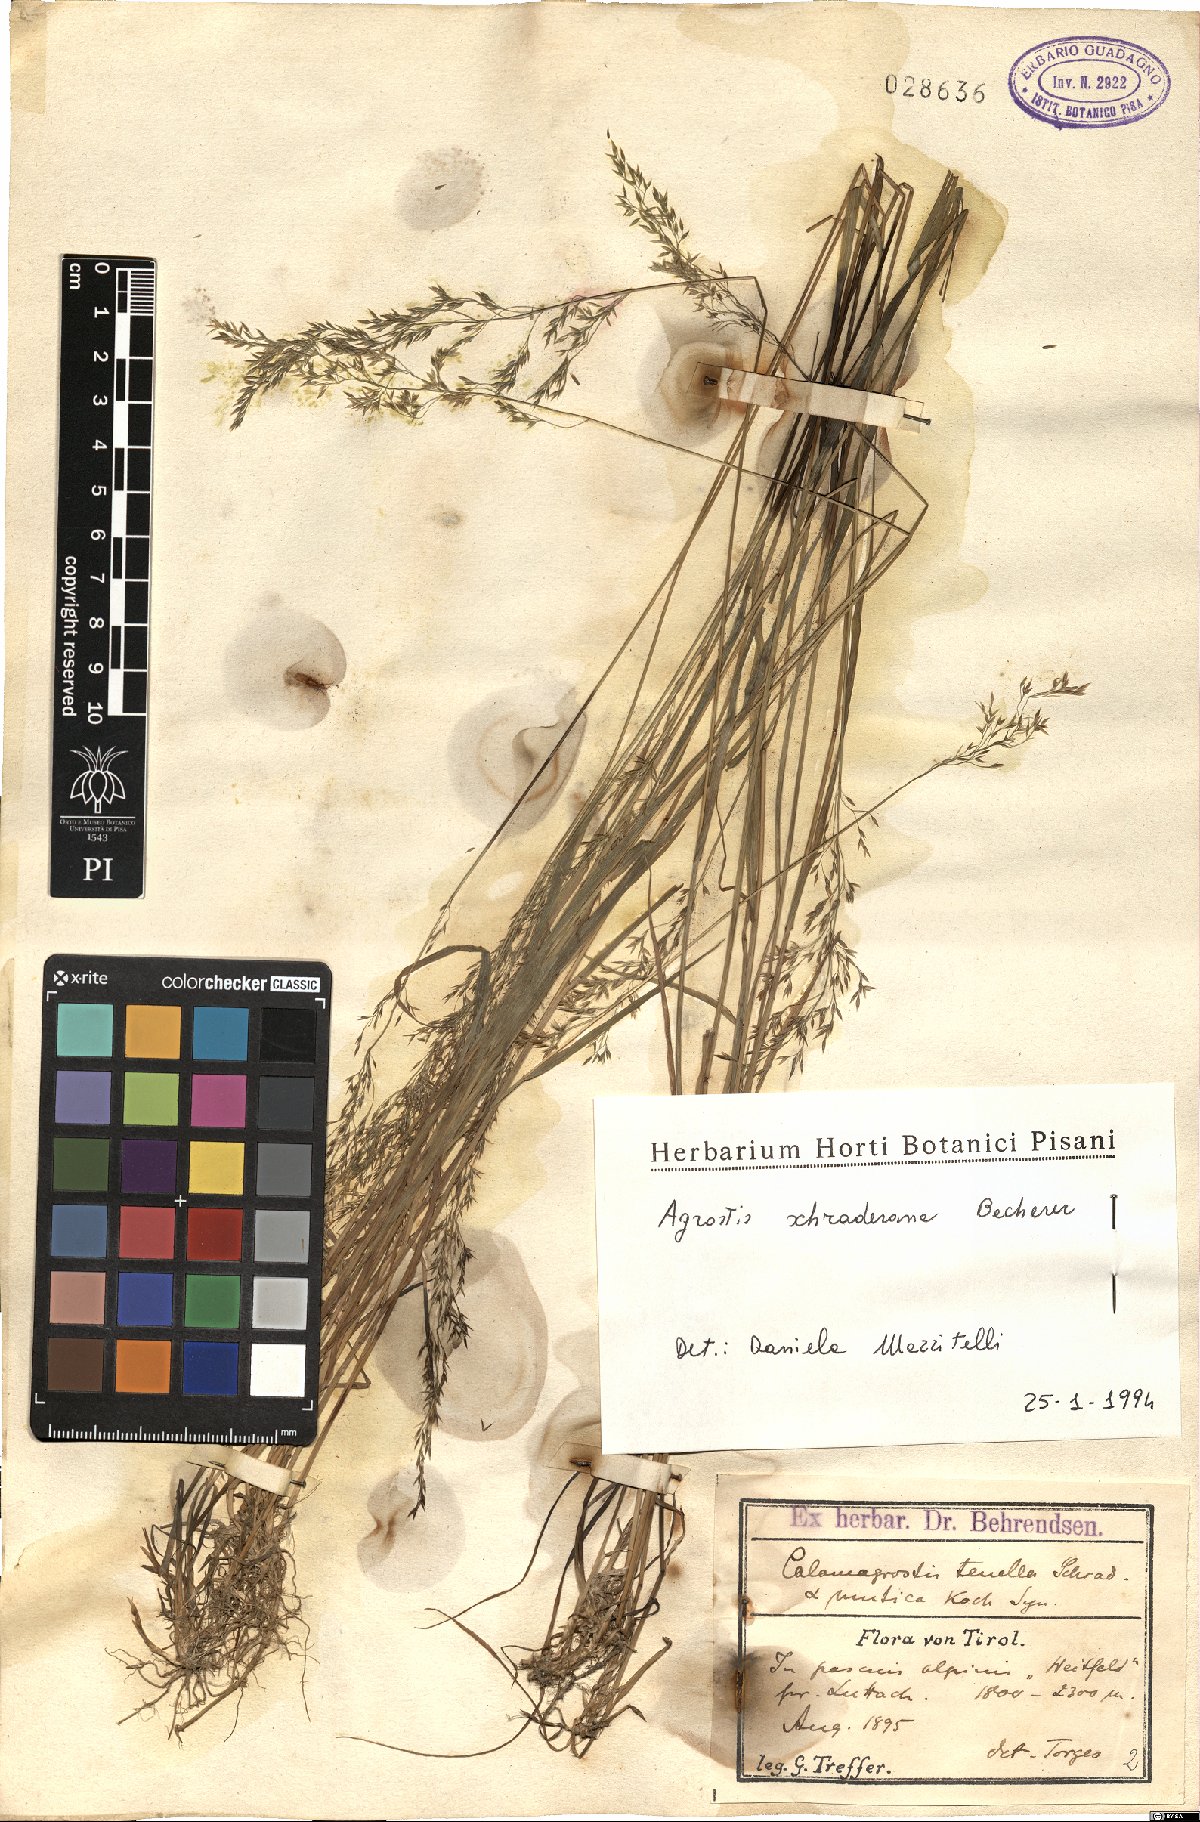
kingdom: Plantae
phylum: Tracheophyta
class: Liliopsida
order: Poales
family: Poaceae
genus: Agrostis
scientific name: Agrostis schraderiana
